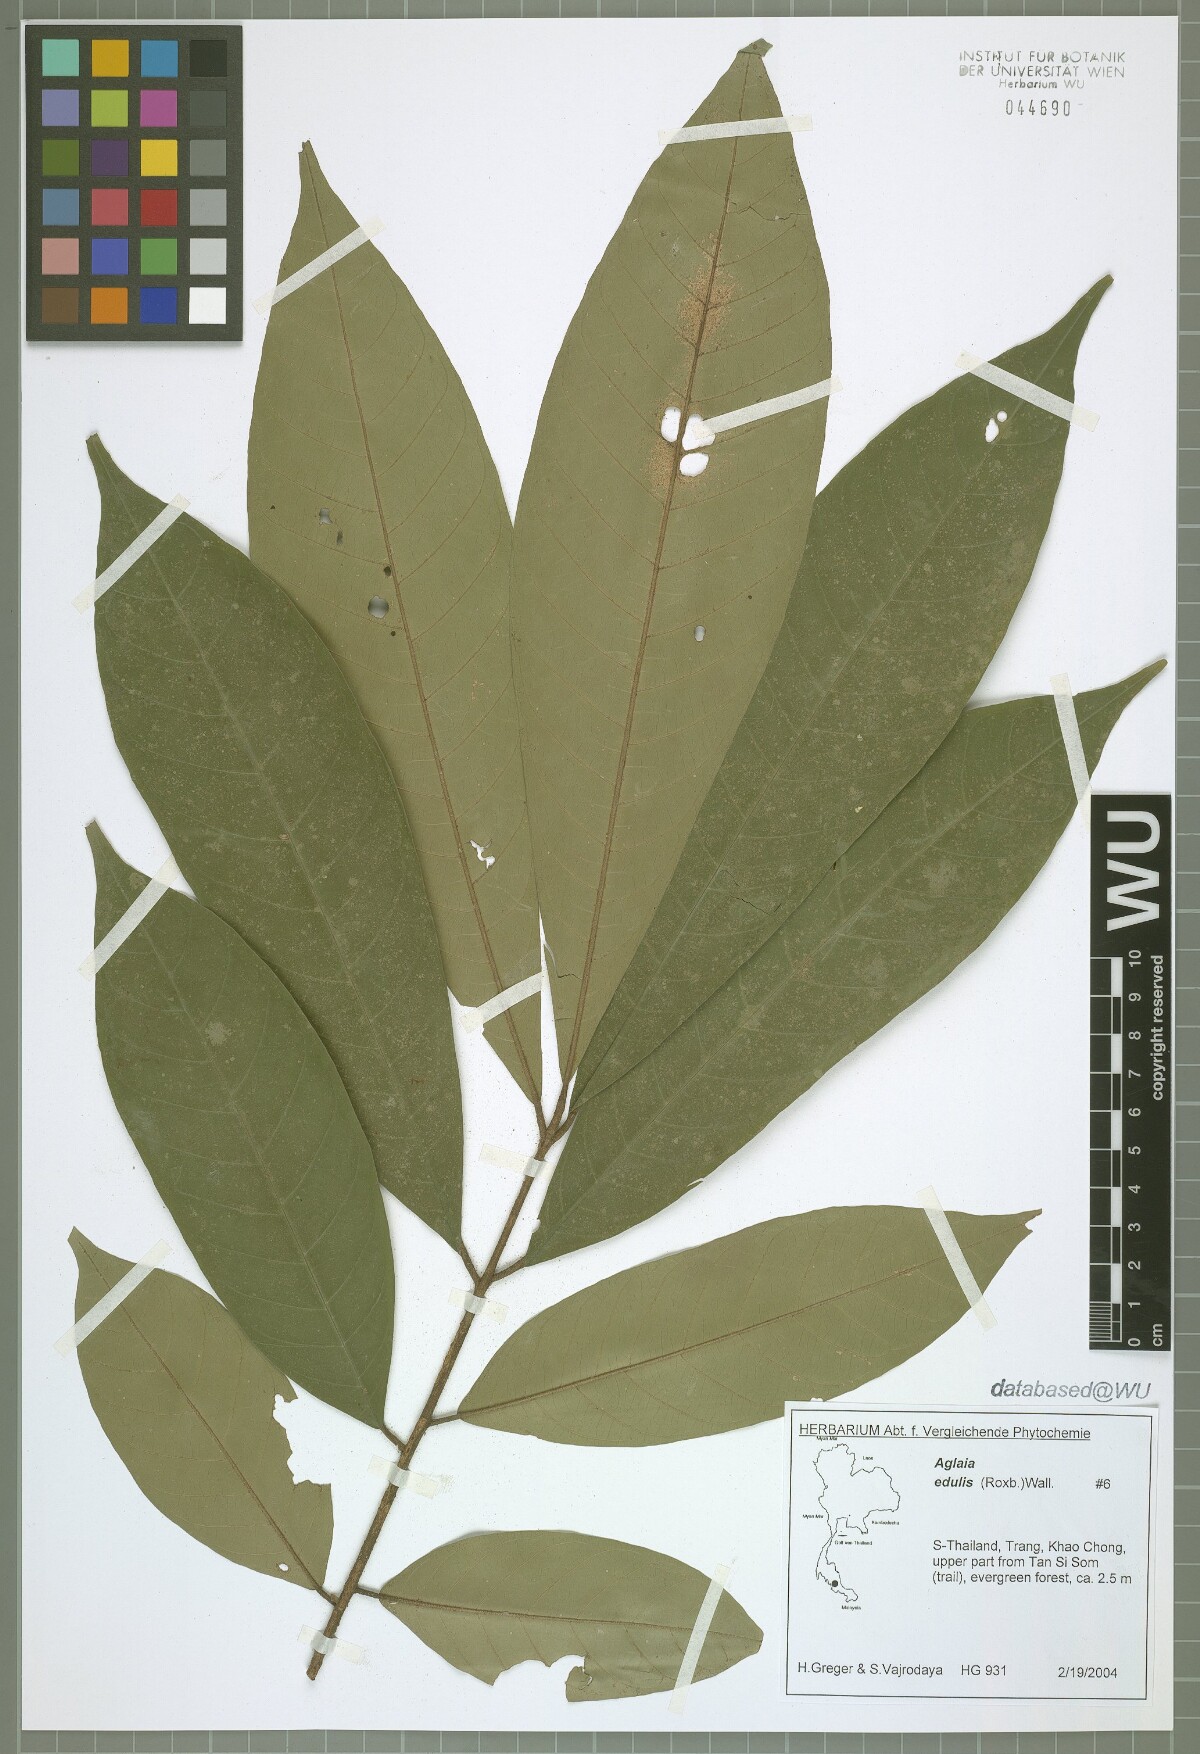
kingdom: Plantae
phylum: Tracheophyta
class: Magnoliopsida
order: Sapindales
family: Meliaceae
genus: Aglaia
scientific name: Aglaia edulis
